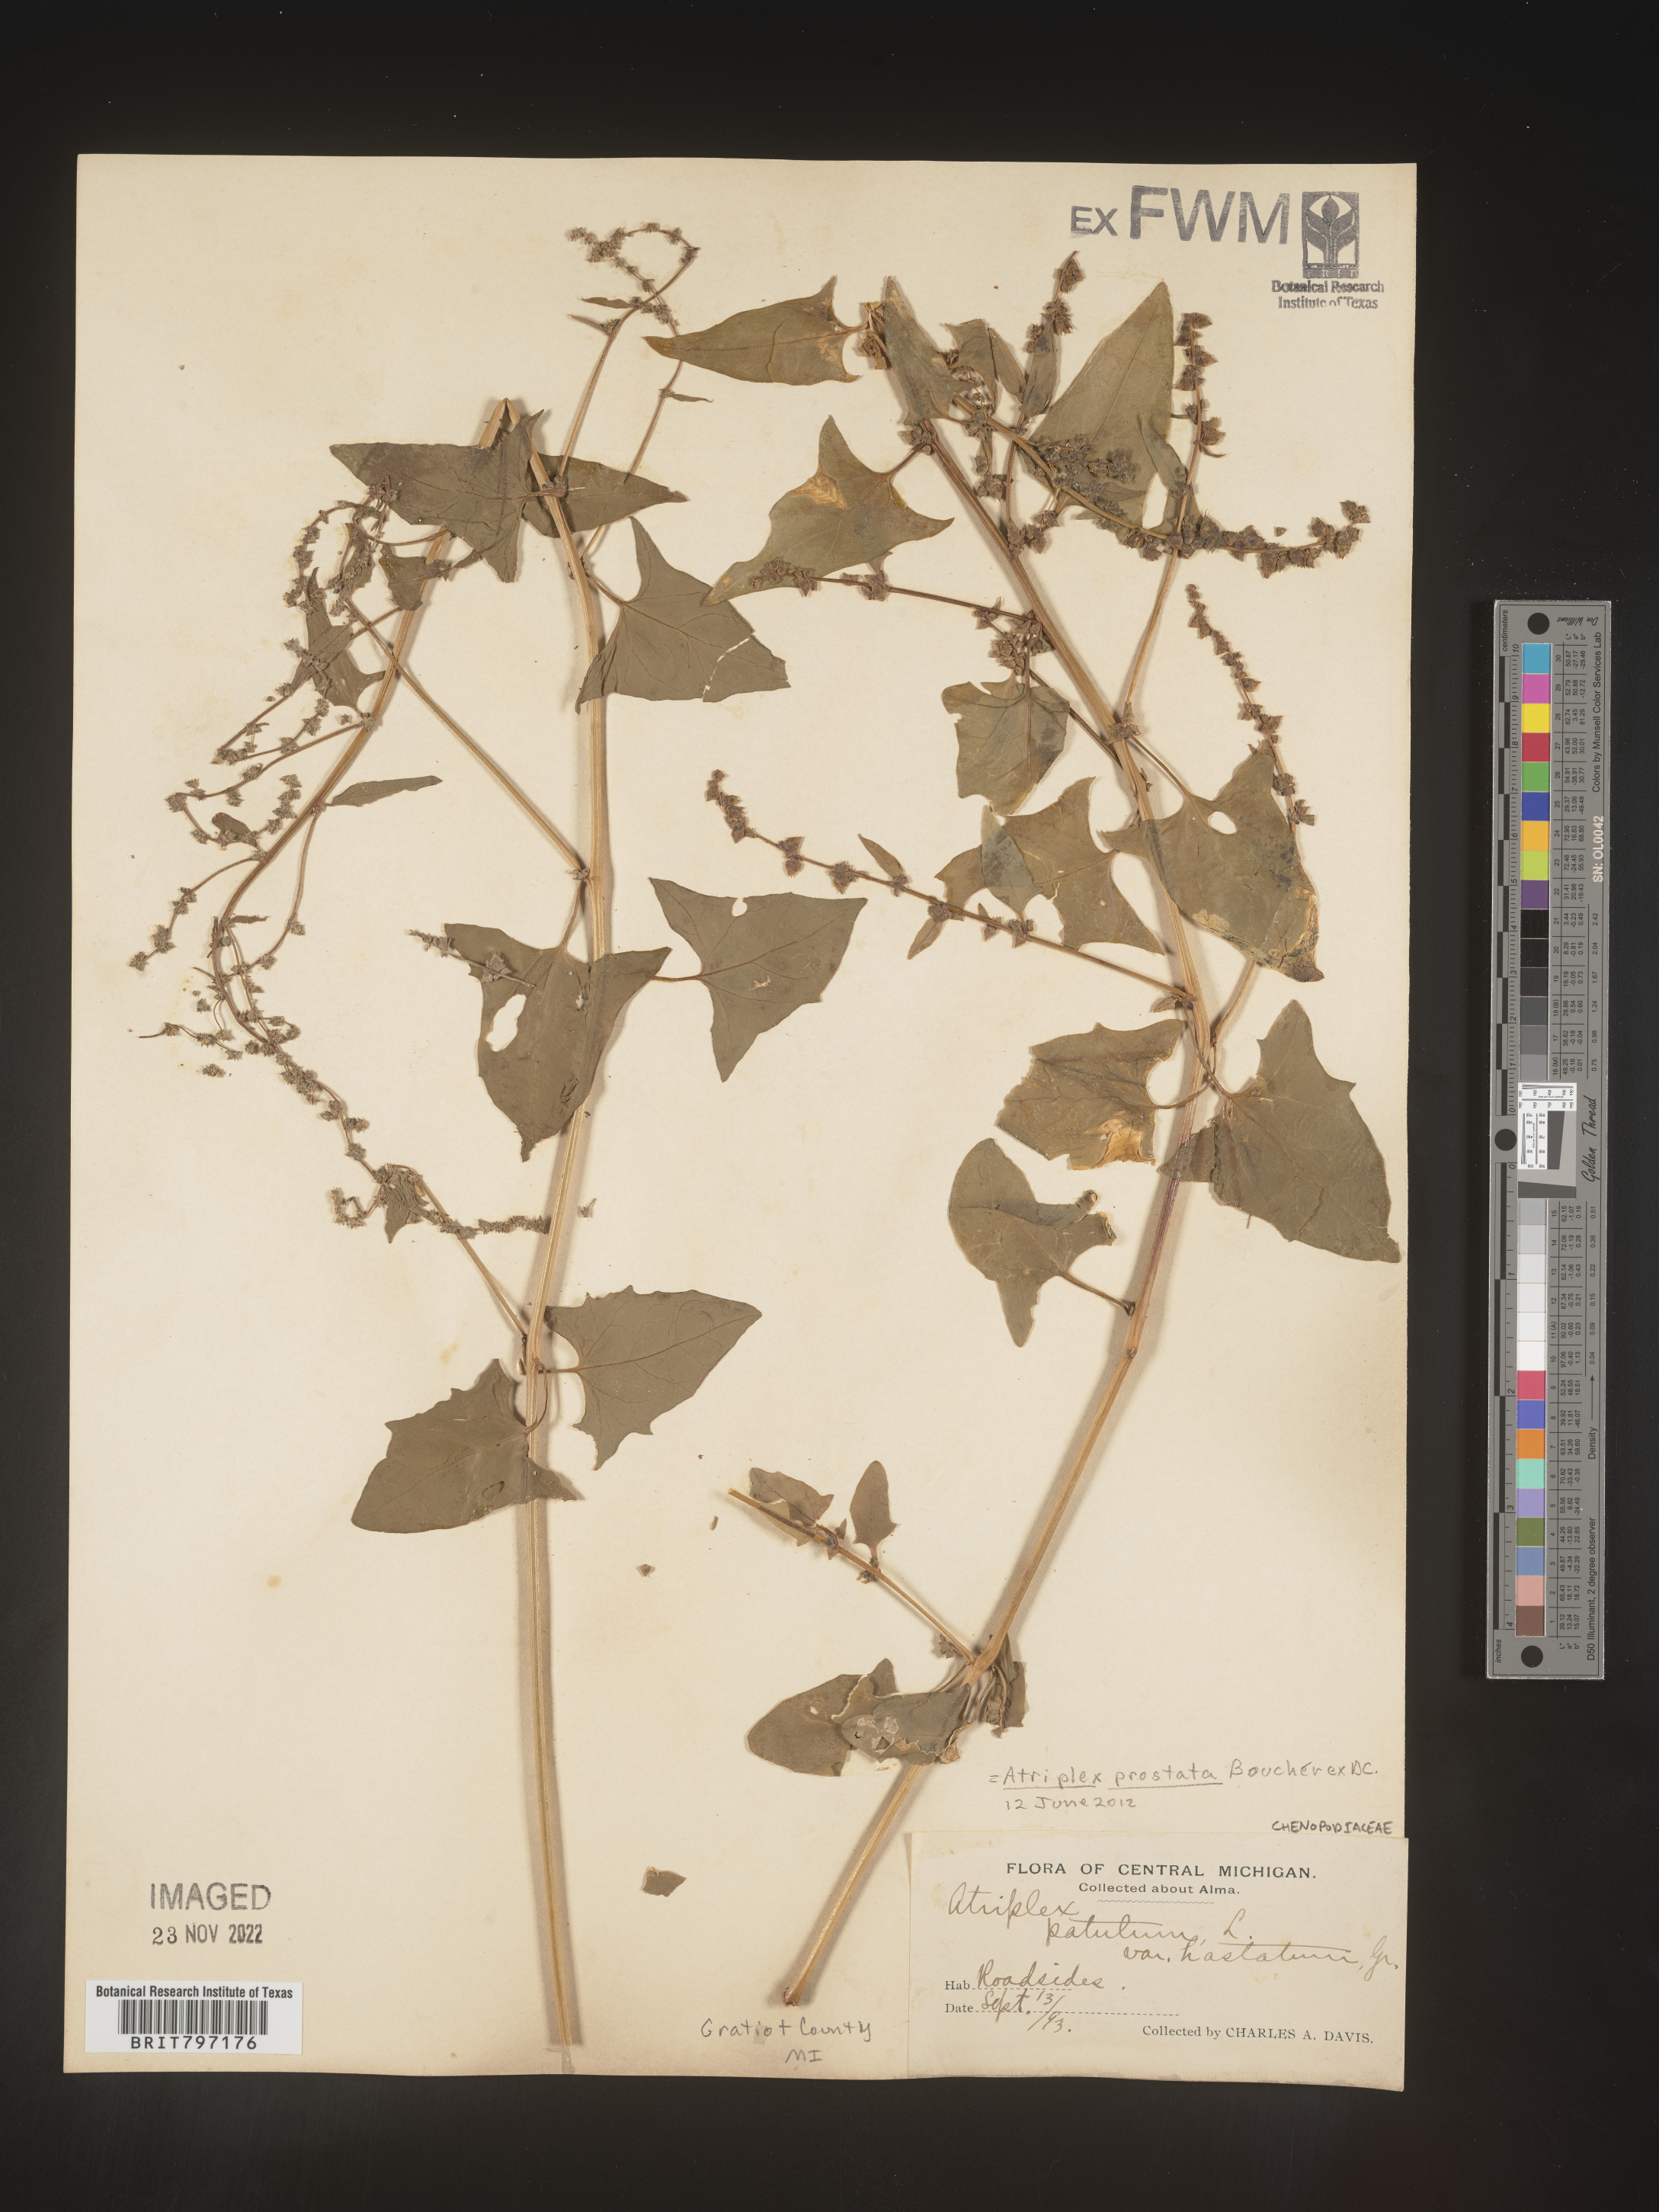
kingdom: Plantae
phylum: Tracheophyta
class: Magnoliopsida
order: Caryophyllales
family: Amaranthaceae
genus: Atriplex
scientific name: Atriplex prostrata
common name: Spear-leaved orache
